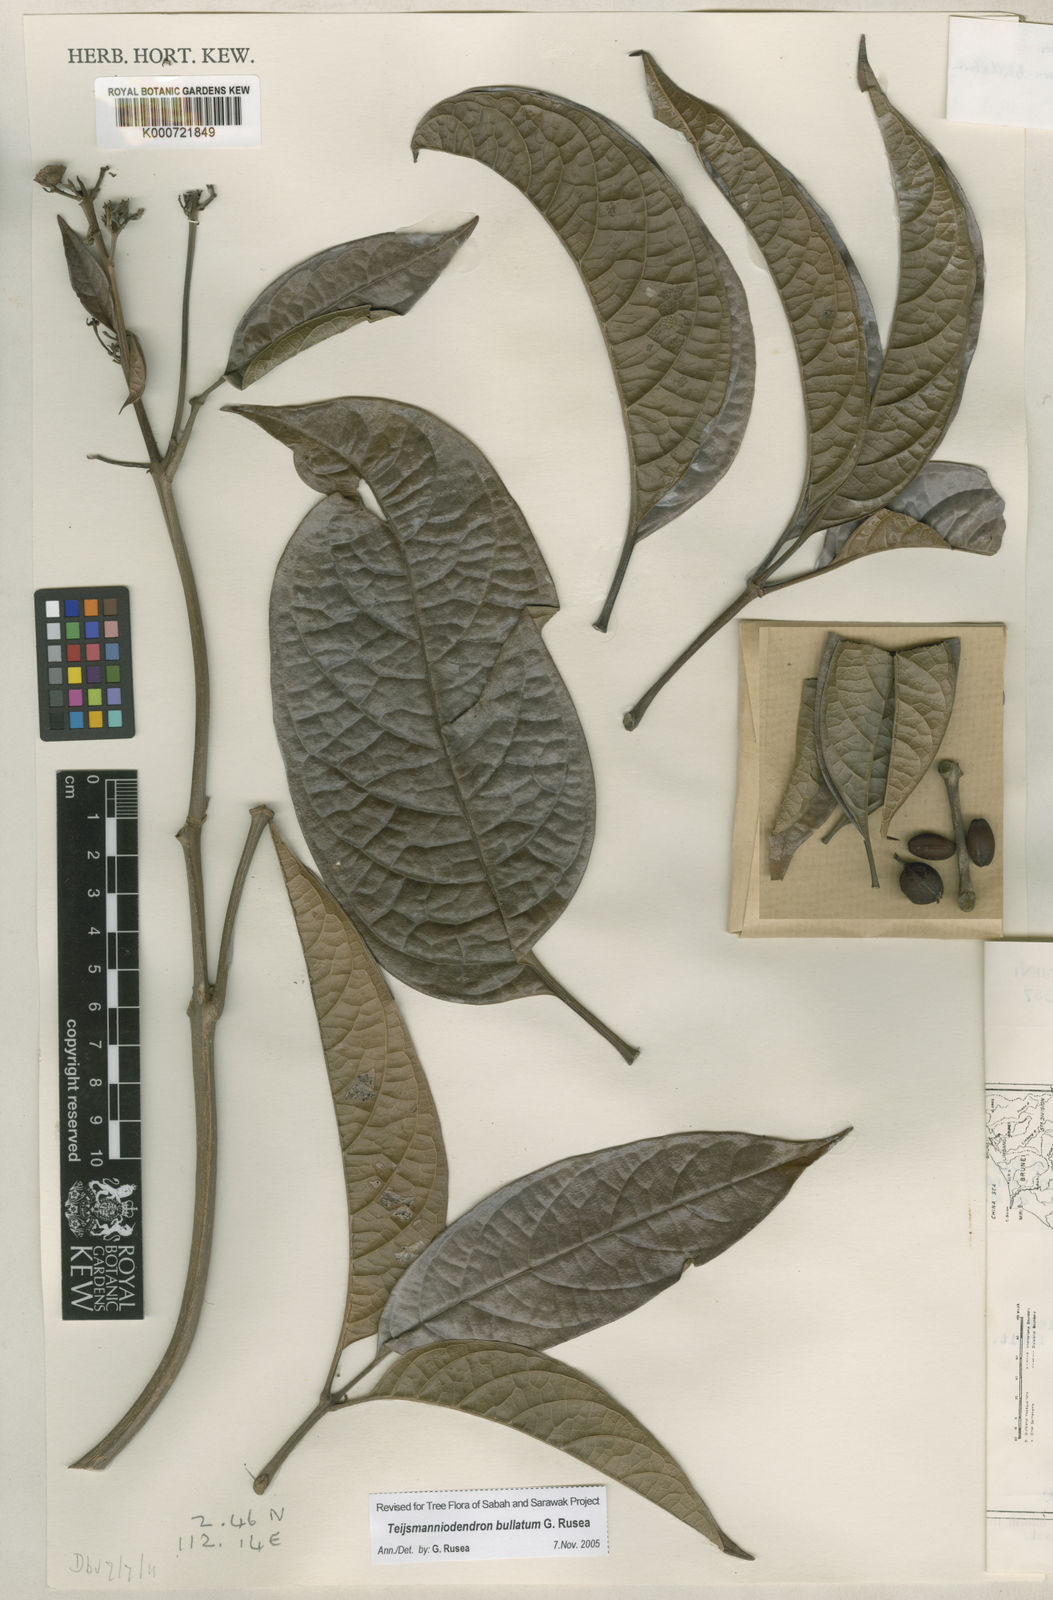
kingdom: Plantae
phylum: Tracheophyta
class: Magnoliopsida
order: Lamiales
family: Lamiaceae
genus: Teijsmanniodendron
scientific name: Teijsmanniodendron bullatum
